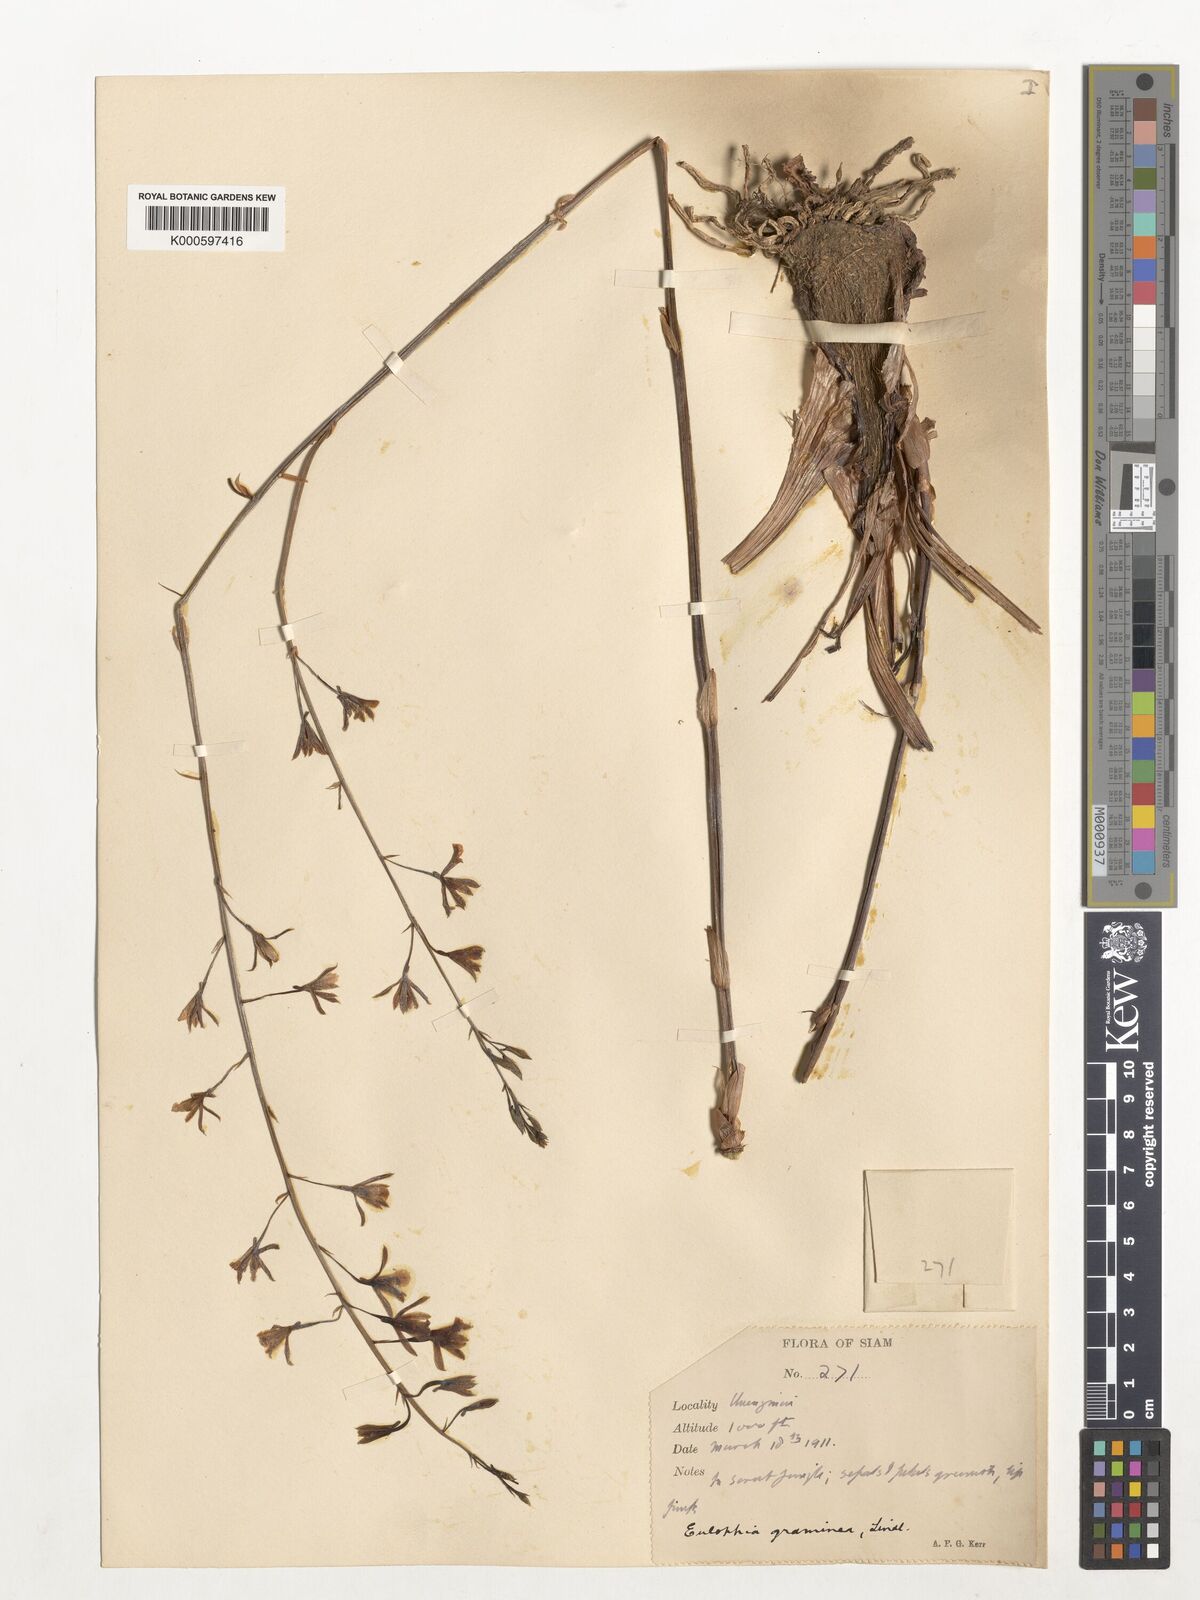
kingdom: Plantae
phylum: Tracheophyta
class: Liliopsida
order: Asparagales
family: Orchidaceae
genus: Eulophia
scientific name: Eulophia graminea
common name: Orchid
